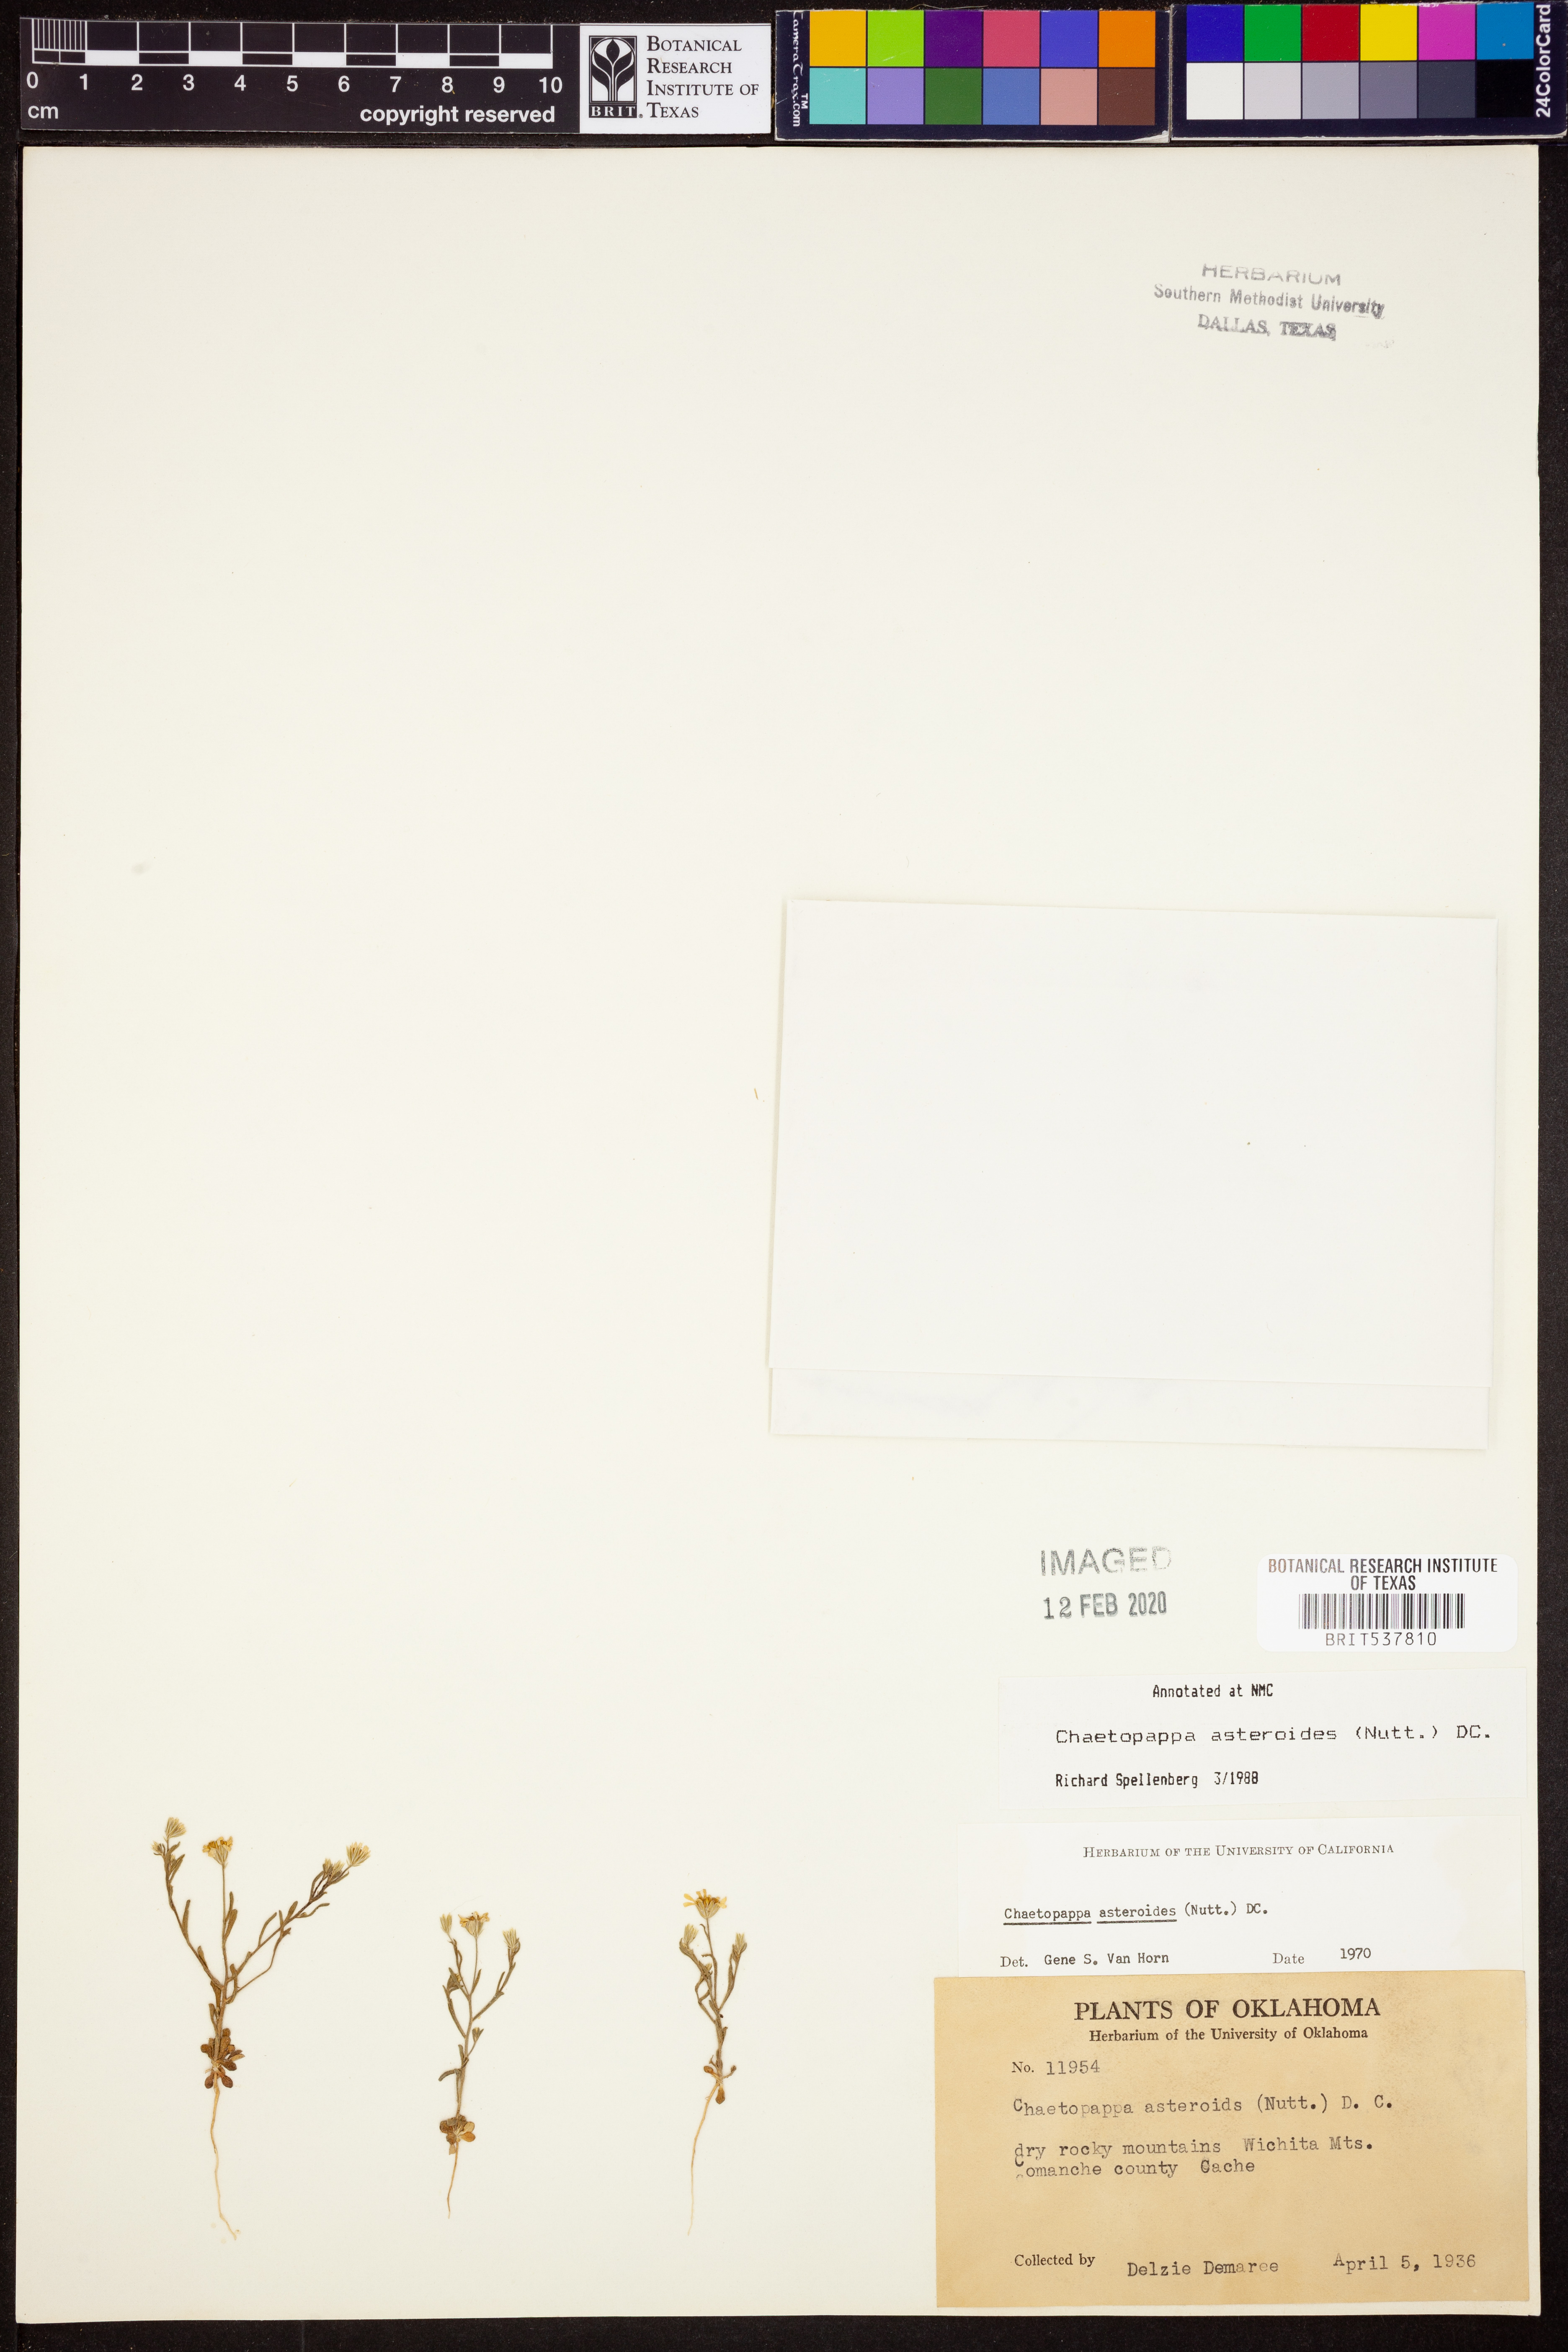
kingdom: Plantae
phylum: Tracheophyta
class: Magnoliopsida
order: Asterales
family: Asteraceae
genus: Chaetopappa
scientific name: Chaetopappa asteroides
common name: Tiny lazy daisy
